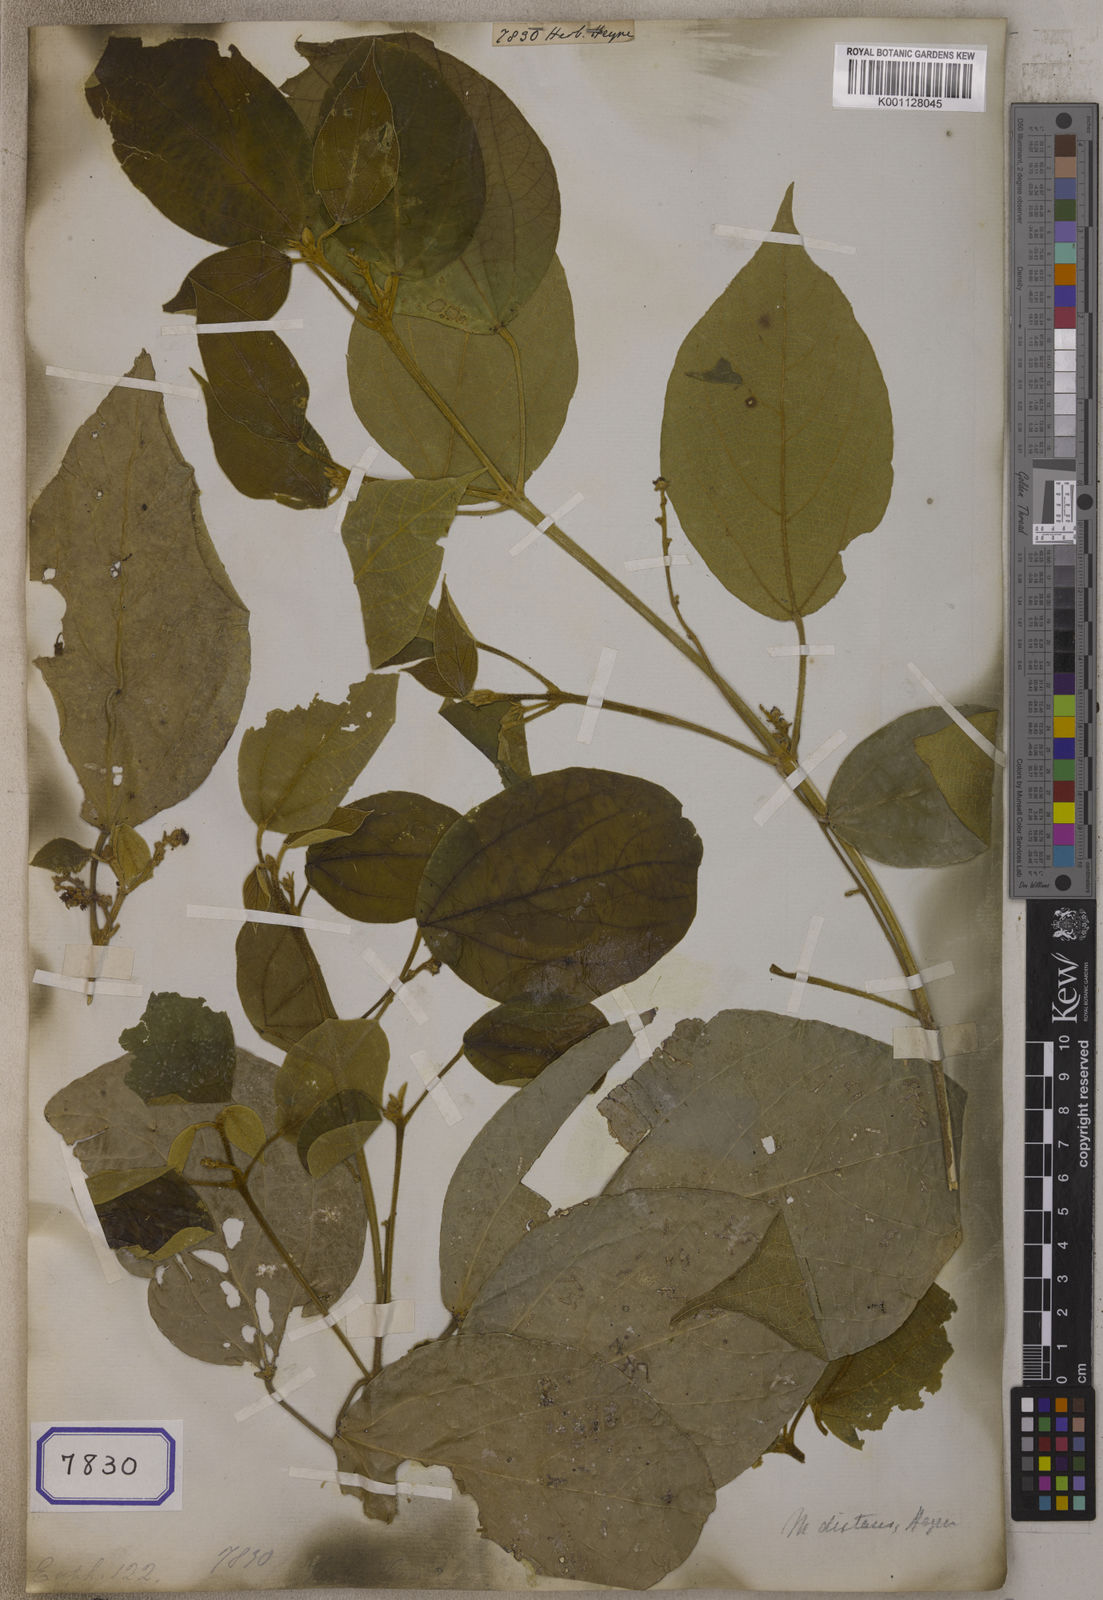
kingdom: Plantae
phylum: Tracheophyta
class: Magnoliopsida
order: Malpighiales
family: Euphorbiaceae
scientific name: Euphorbiaceae
